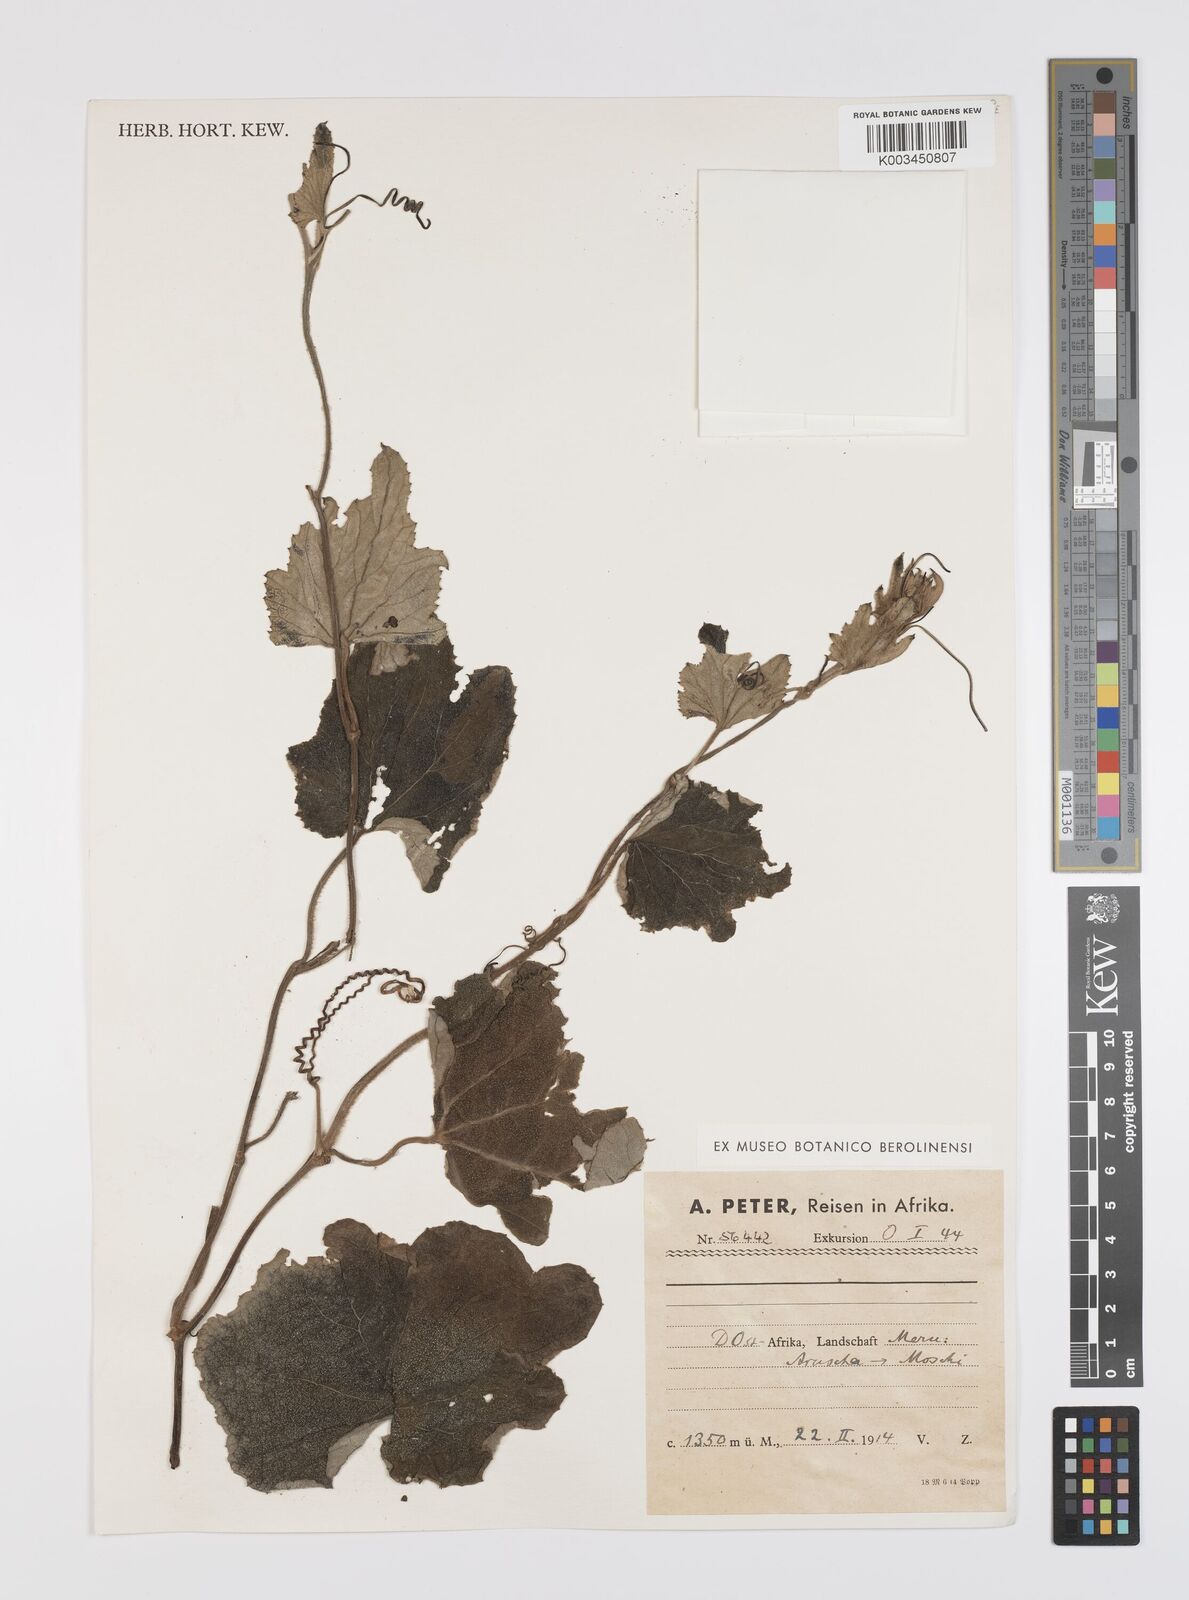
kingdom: Plantae
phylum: Tracheophyta
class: Magnoliopsida
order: Cucurbitales
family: Cucurbitaceae
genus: Lagenaria
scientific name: Lagenaria abyssinica
